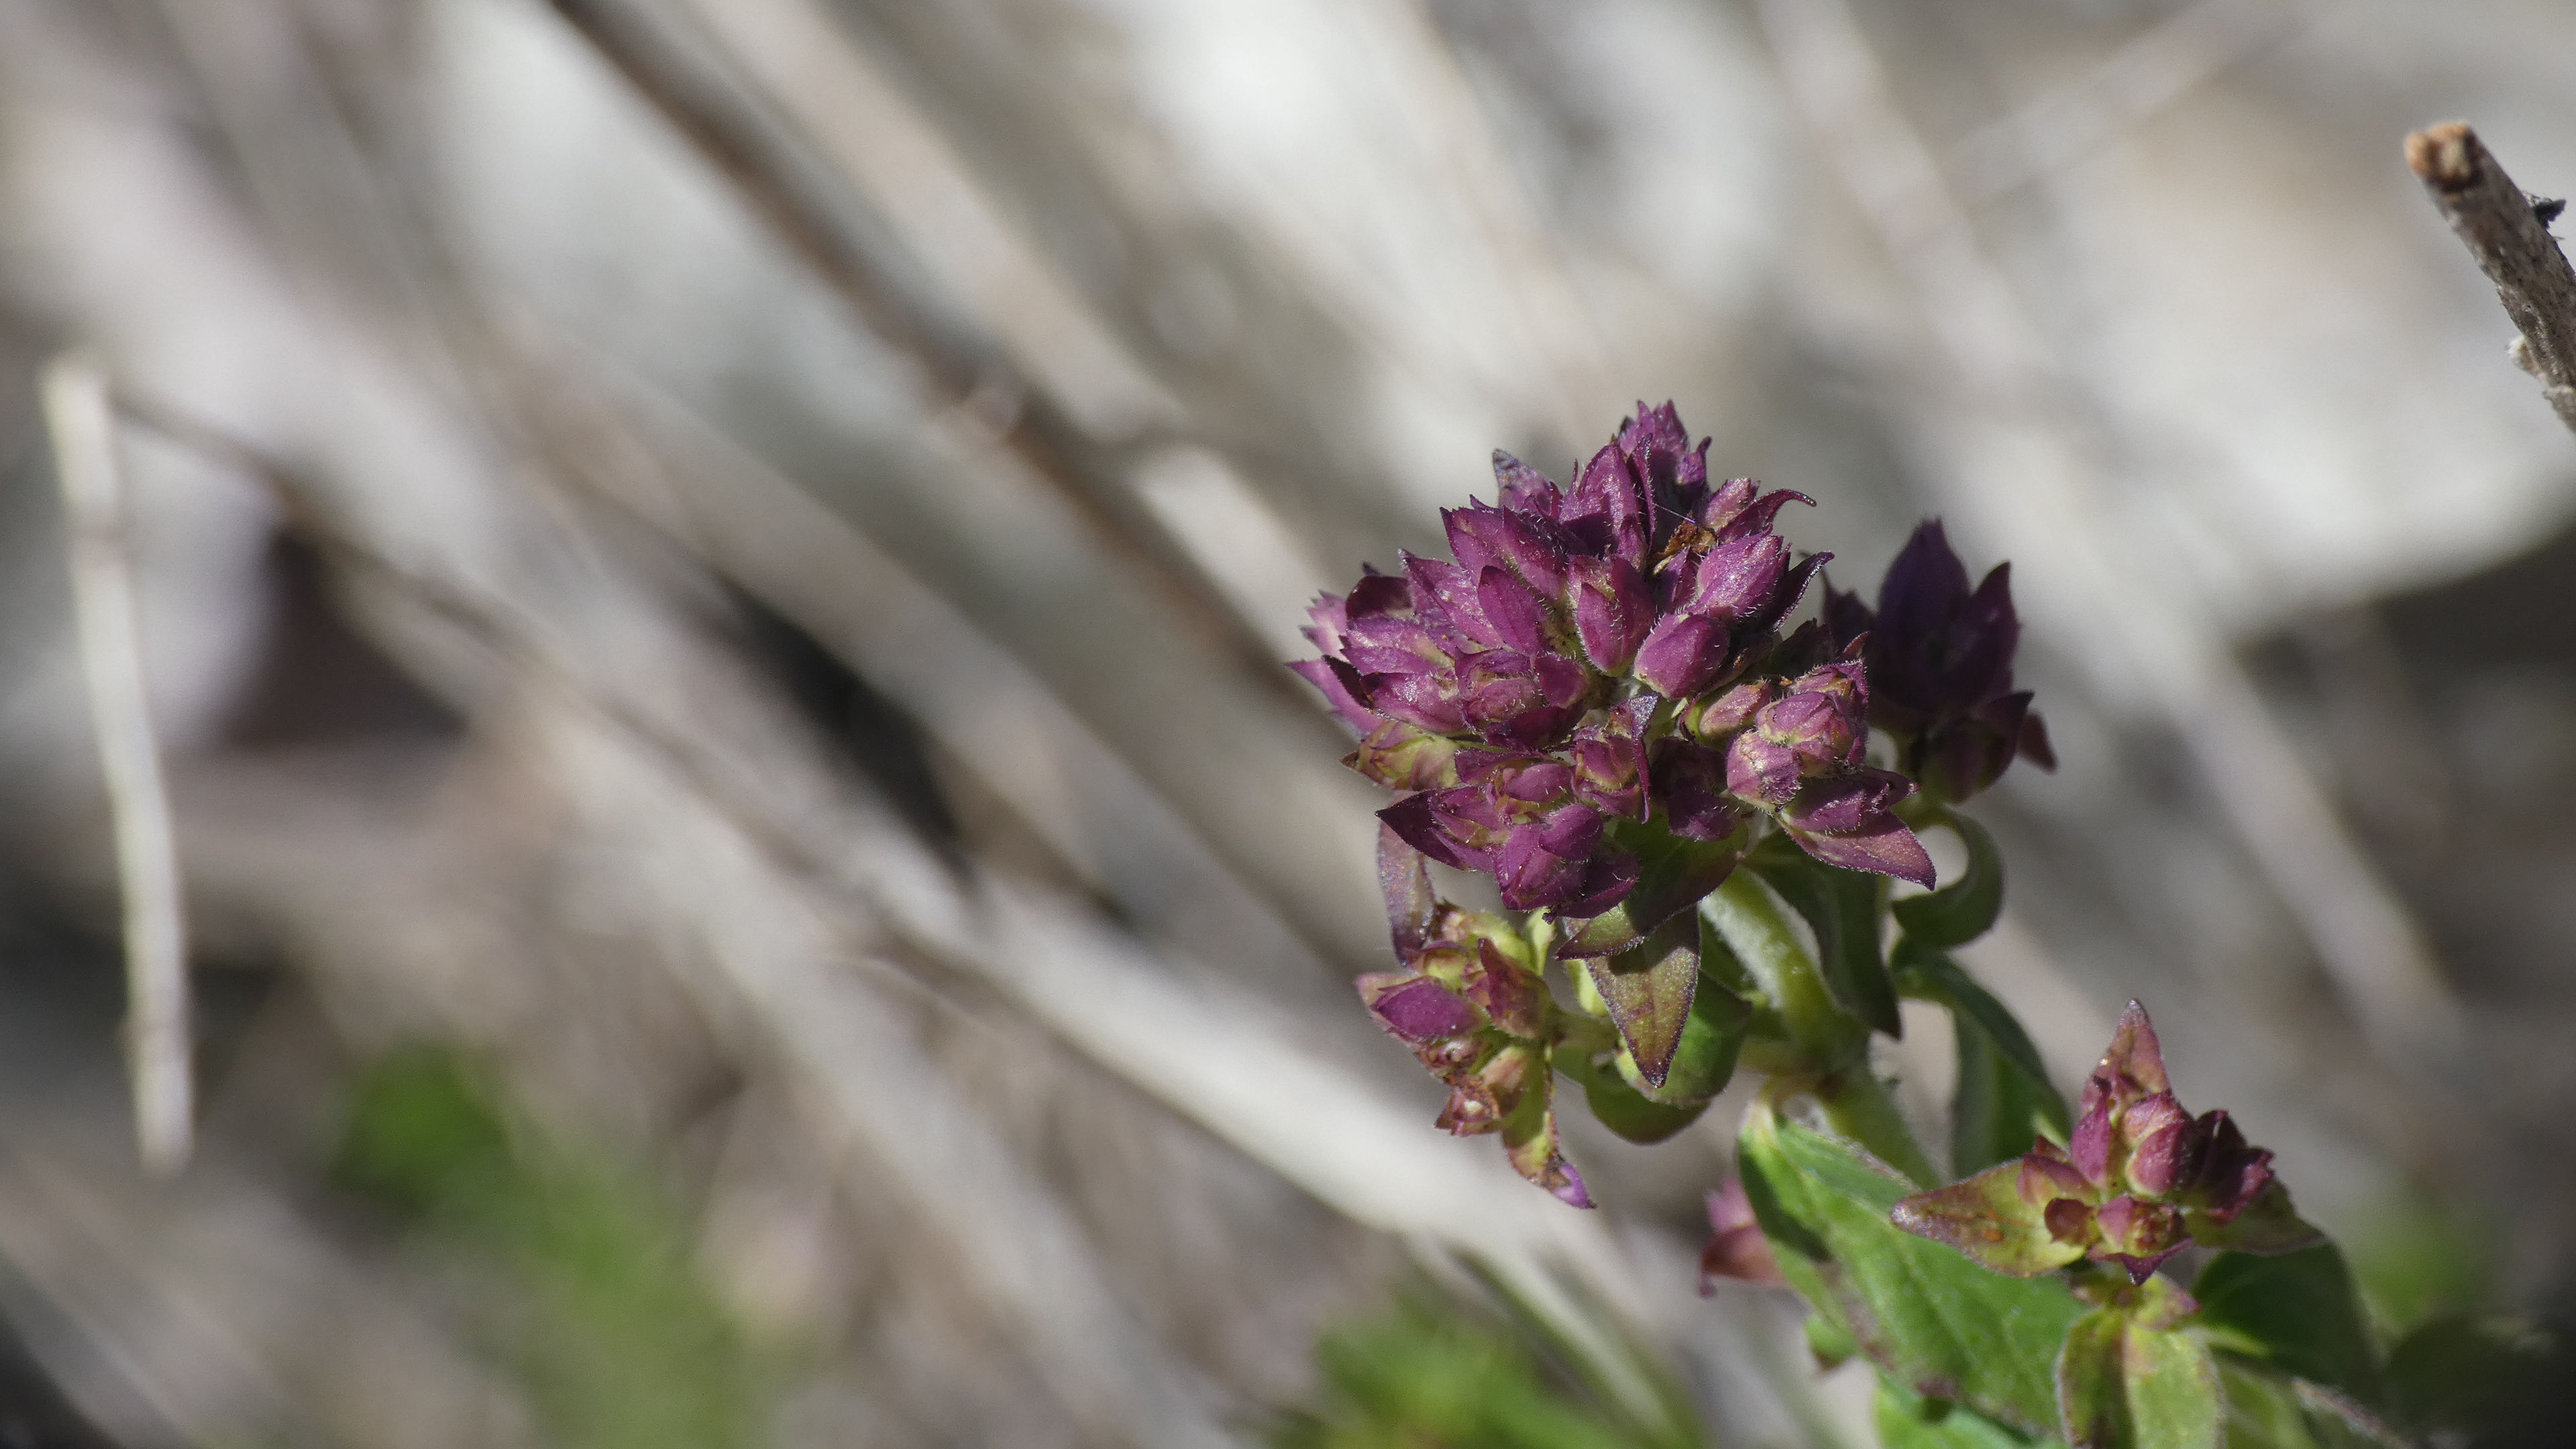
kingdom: Plantae
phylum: Tracheophyta
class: Magnoliopsida
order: Lamiales
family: Lamiaceae
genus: Origanum
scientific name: Origanum vulgare
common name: Merian
